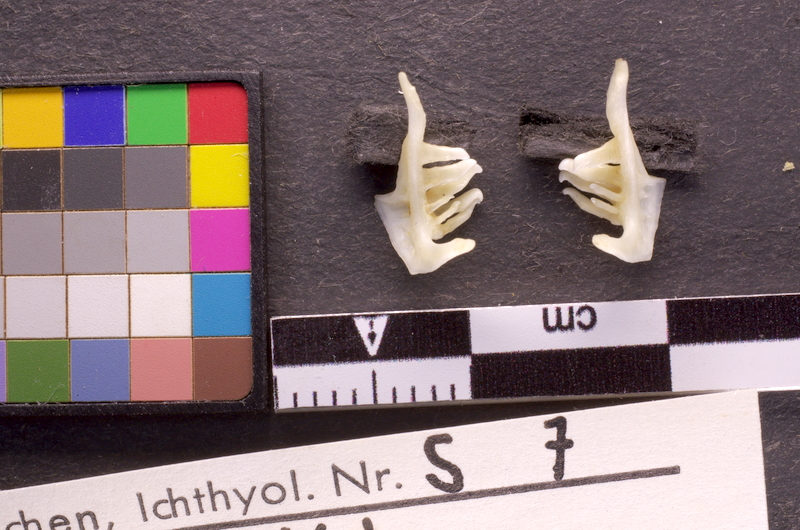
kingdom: Animalia
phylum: Chordata
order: Cypriniformes
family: Cyprinidae
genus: Telestes
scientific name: Telestes souffia
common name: Souffia
